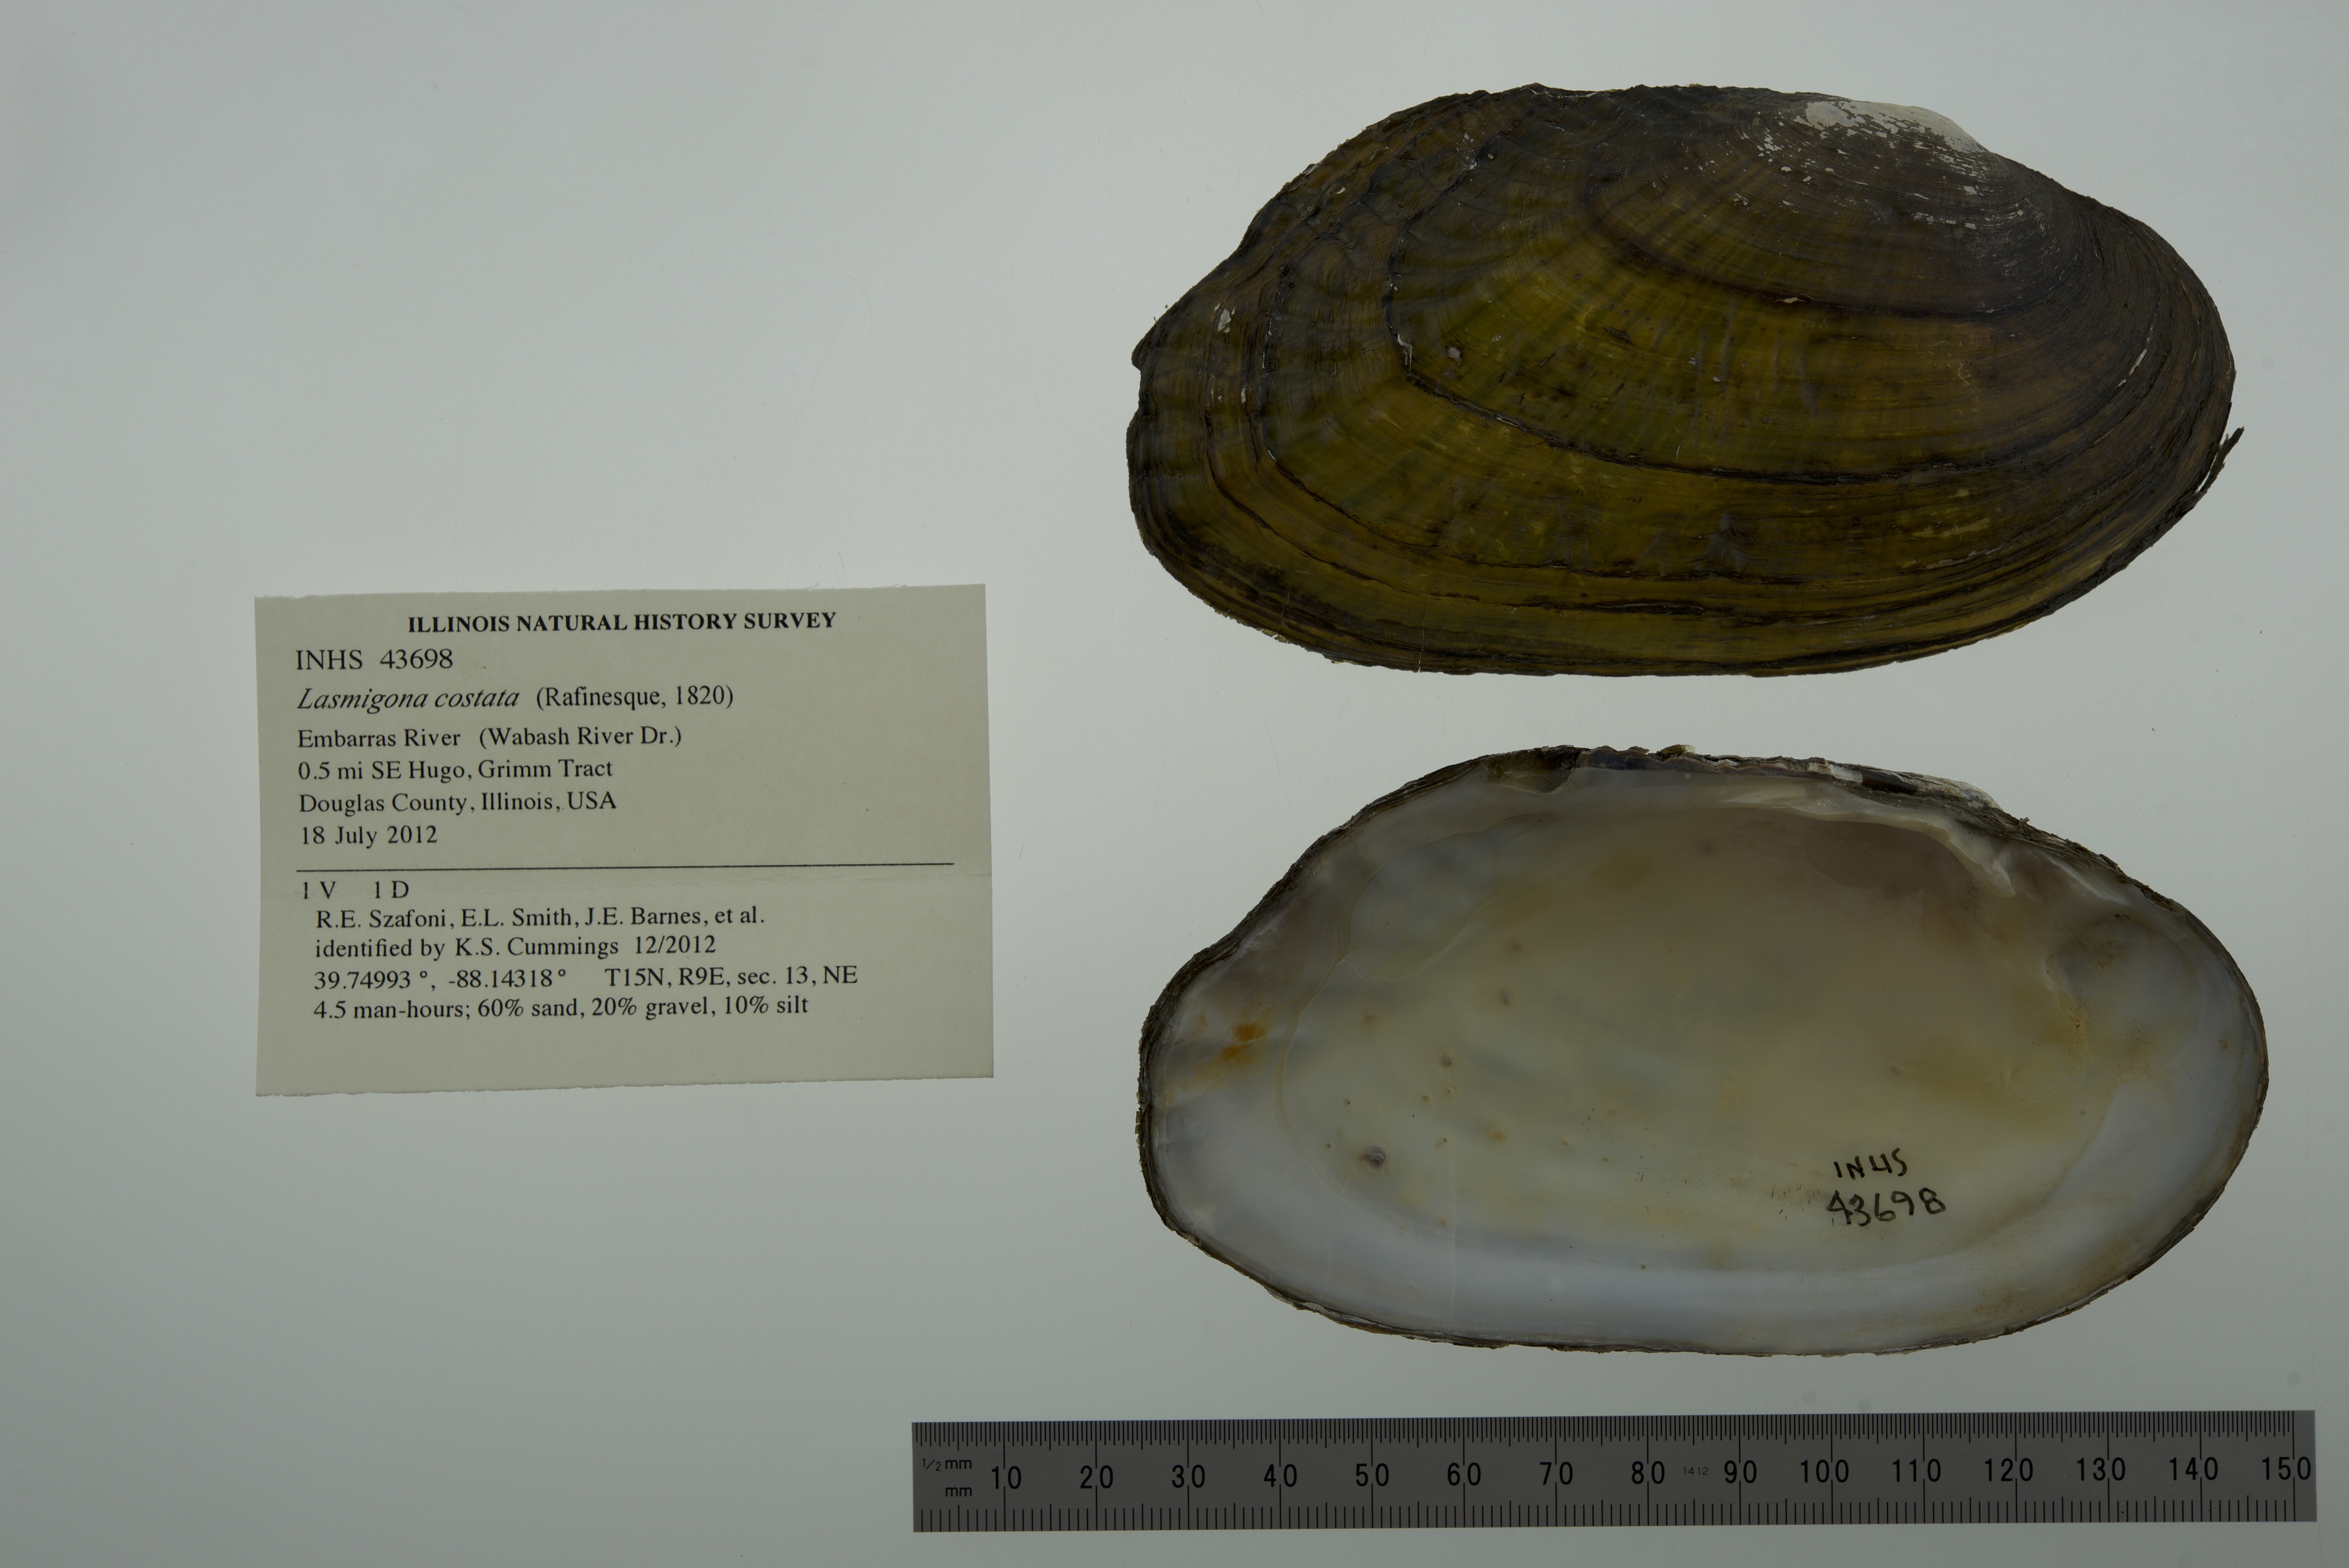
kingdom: Animalia
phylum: Mollusca
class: Bivalvia
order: Unionida
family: Unionidae
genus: Lasmigona
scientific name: Lasmigona costata
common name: Flutedshell
